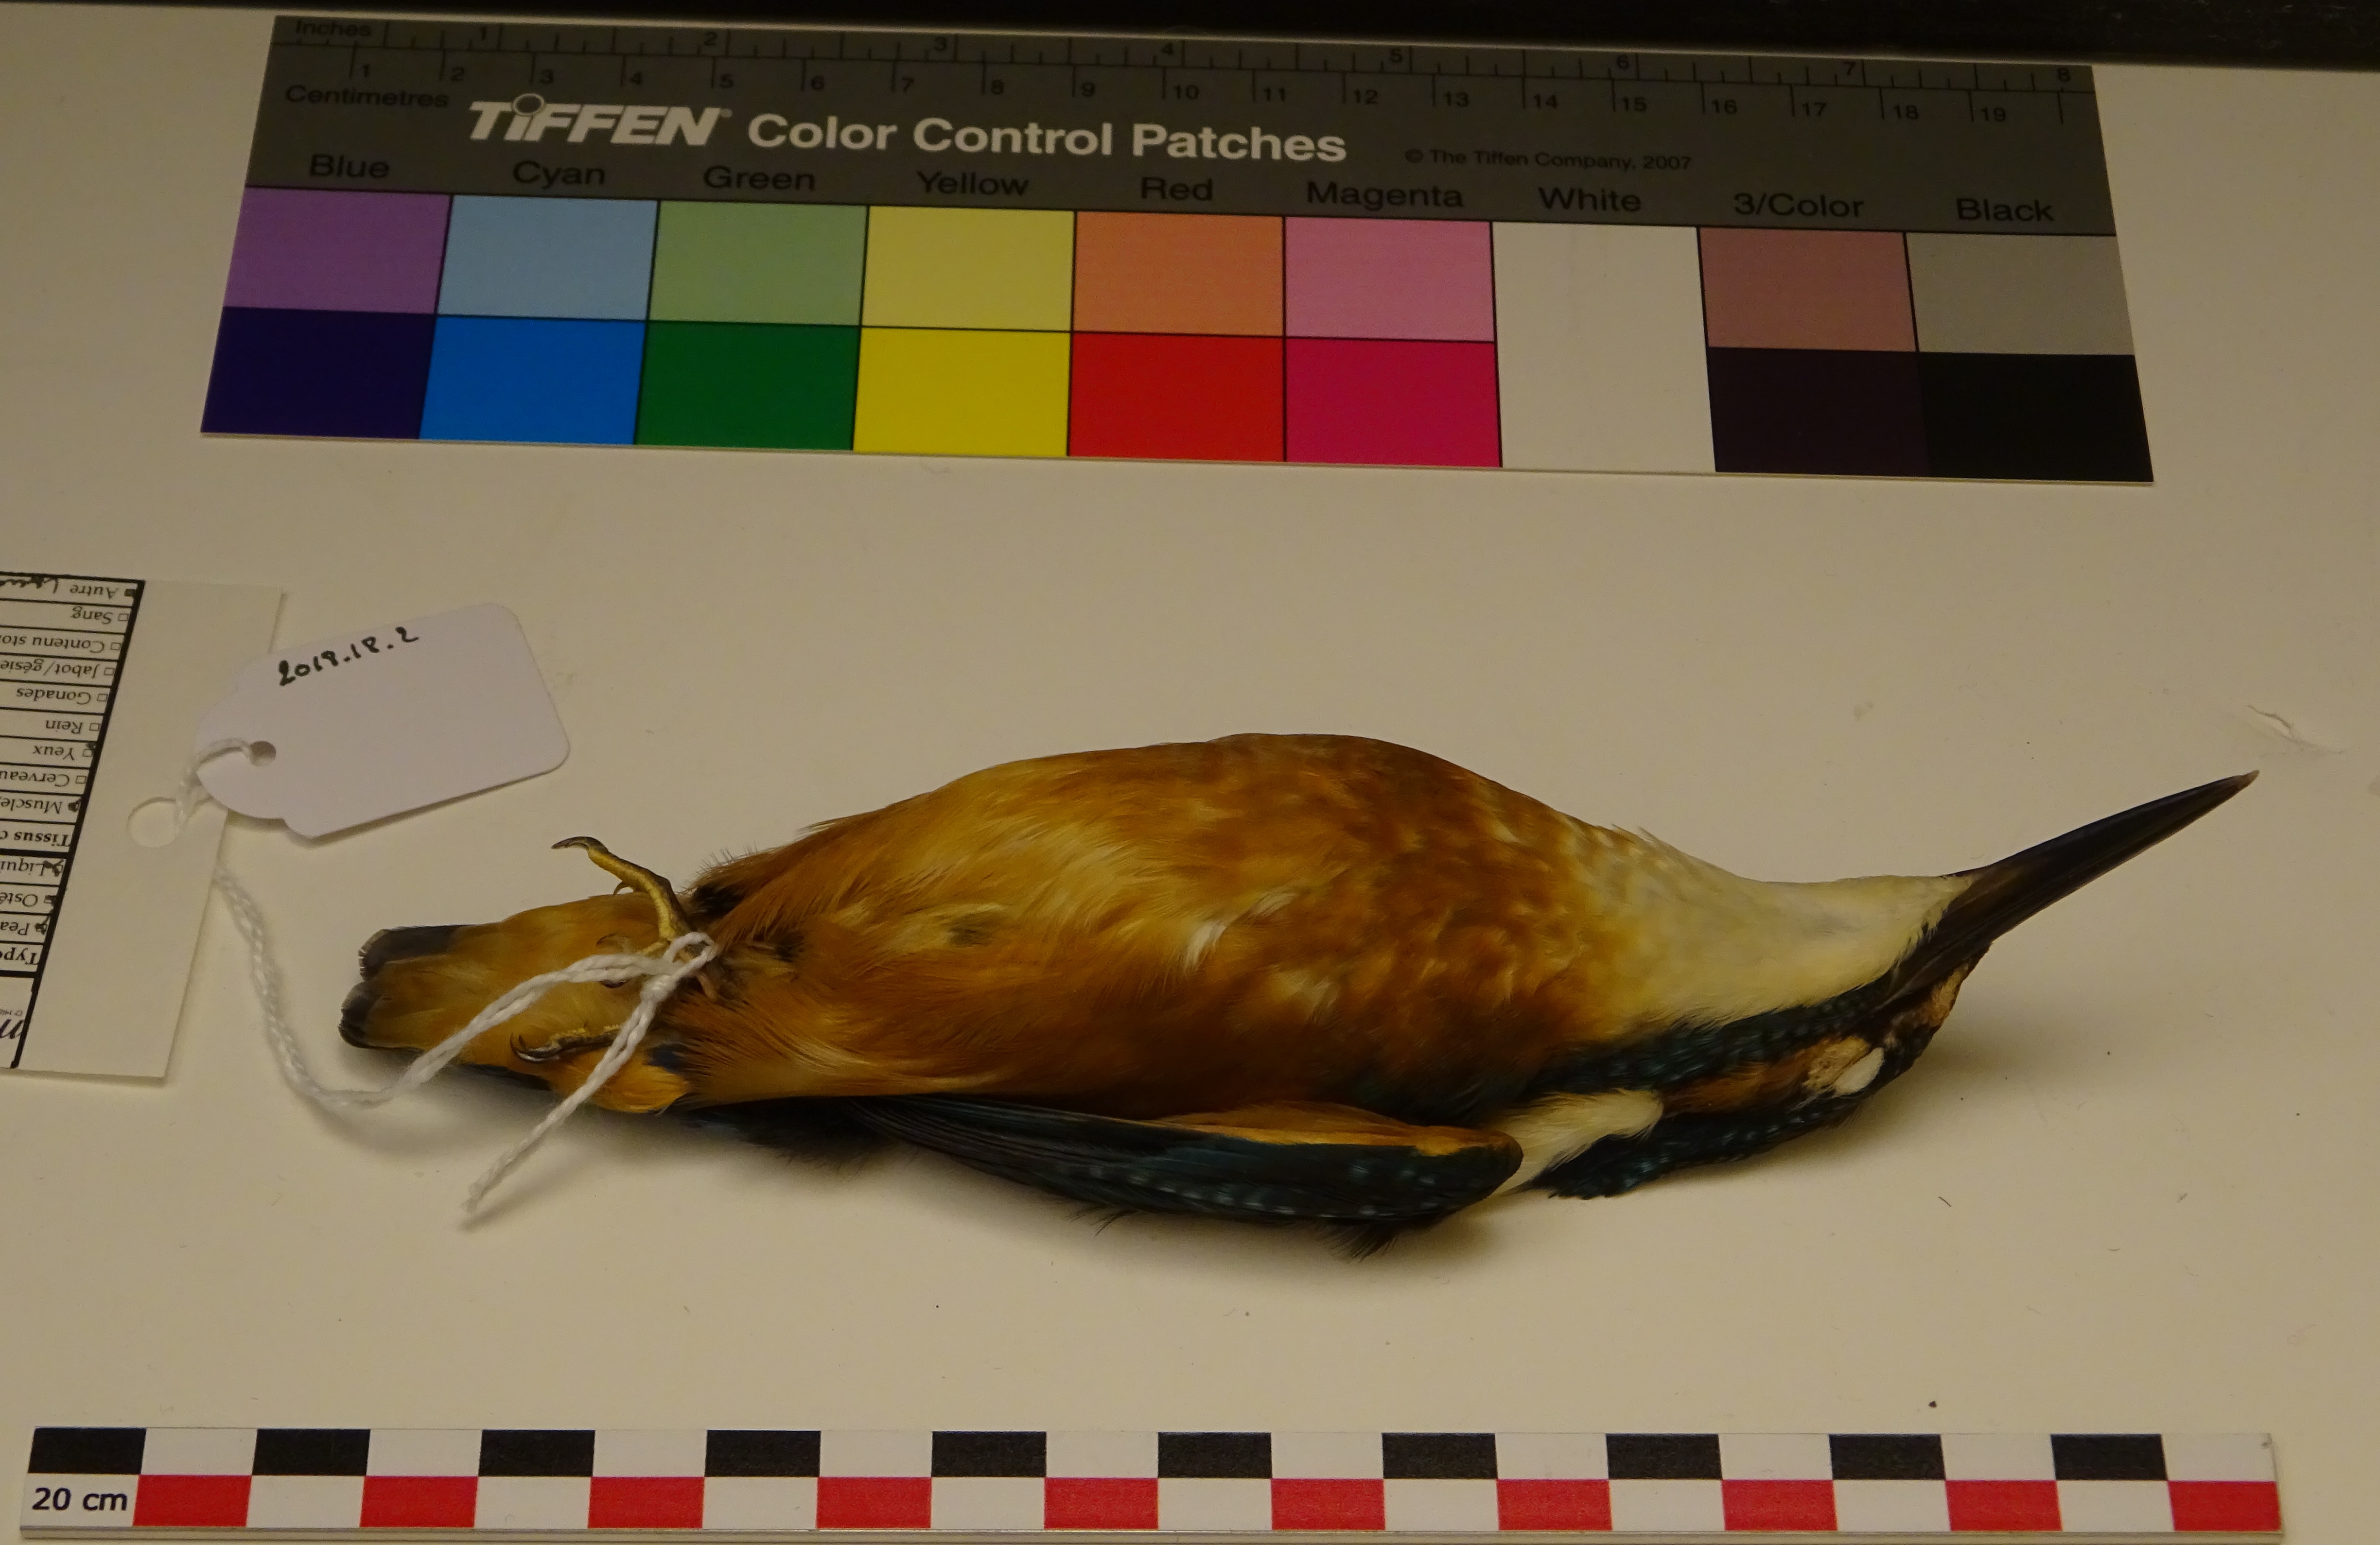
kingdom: Animalia
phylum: Chordata
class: Aves
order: Coraciiformes
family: Alcedinidae
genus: Alcedo
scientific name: Alcedo atthis
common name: Common kingfisher
